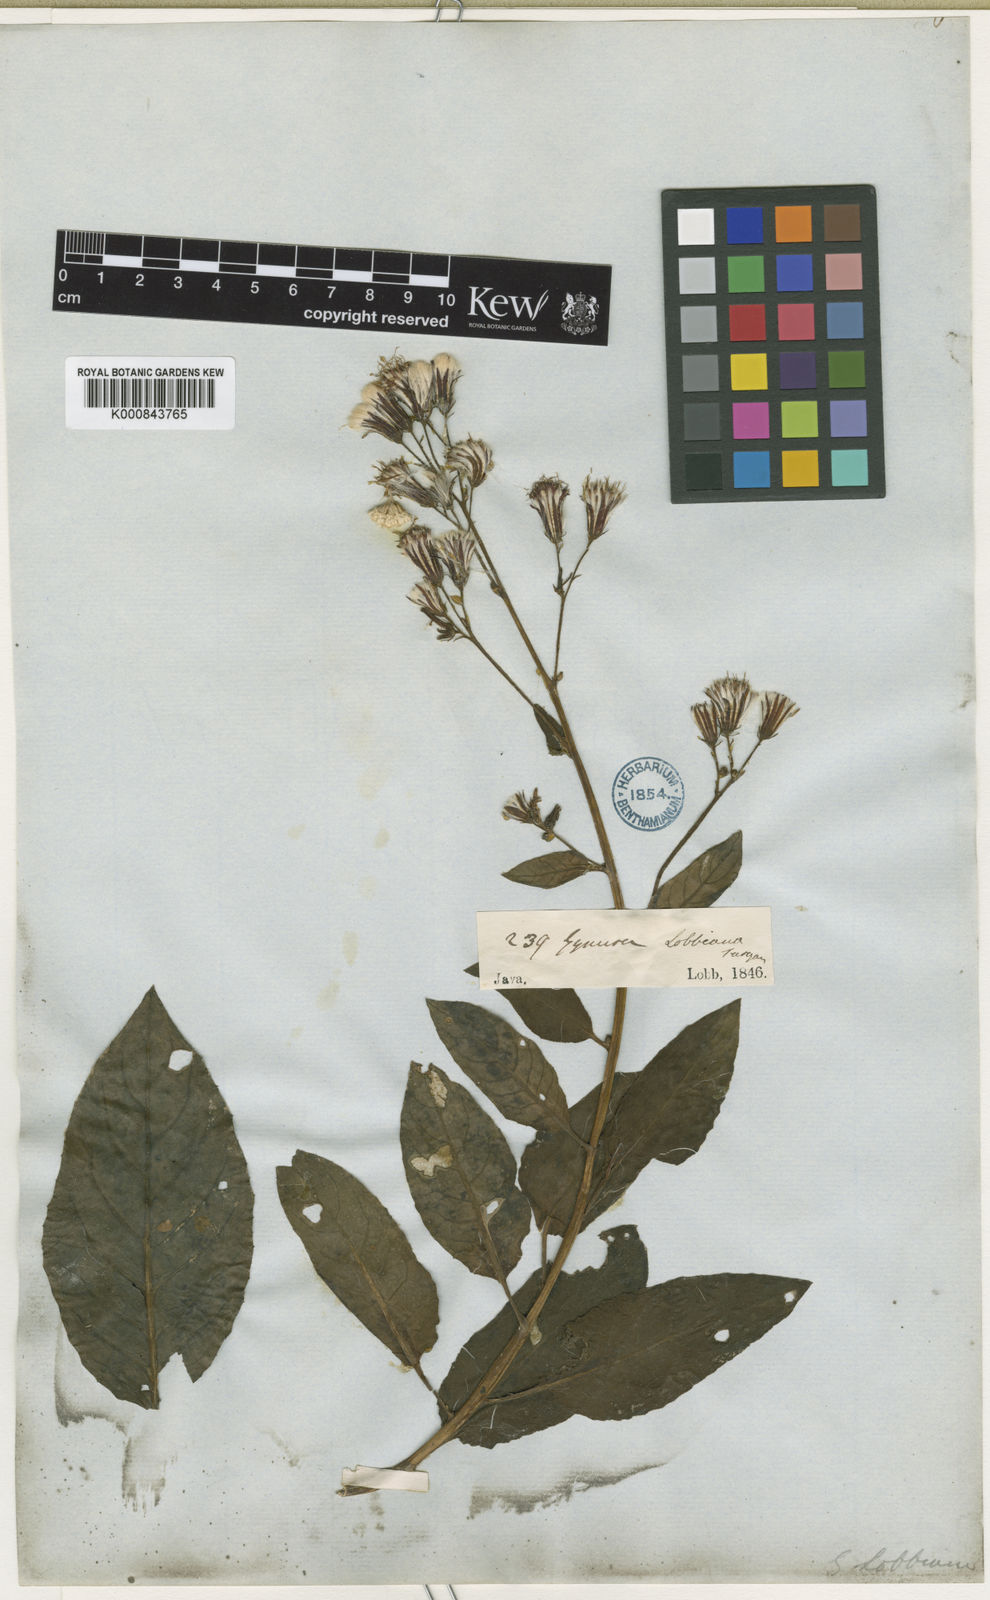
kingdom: Plantae
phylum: Tracheophyta
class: Magnoliopsida
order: Asterales
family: Asteraceae
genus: Gynura
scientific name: Gynura procumbens
